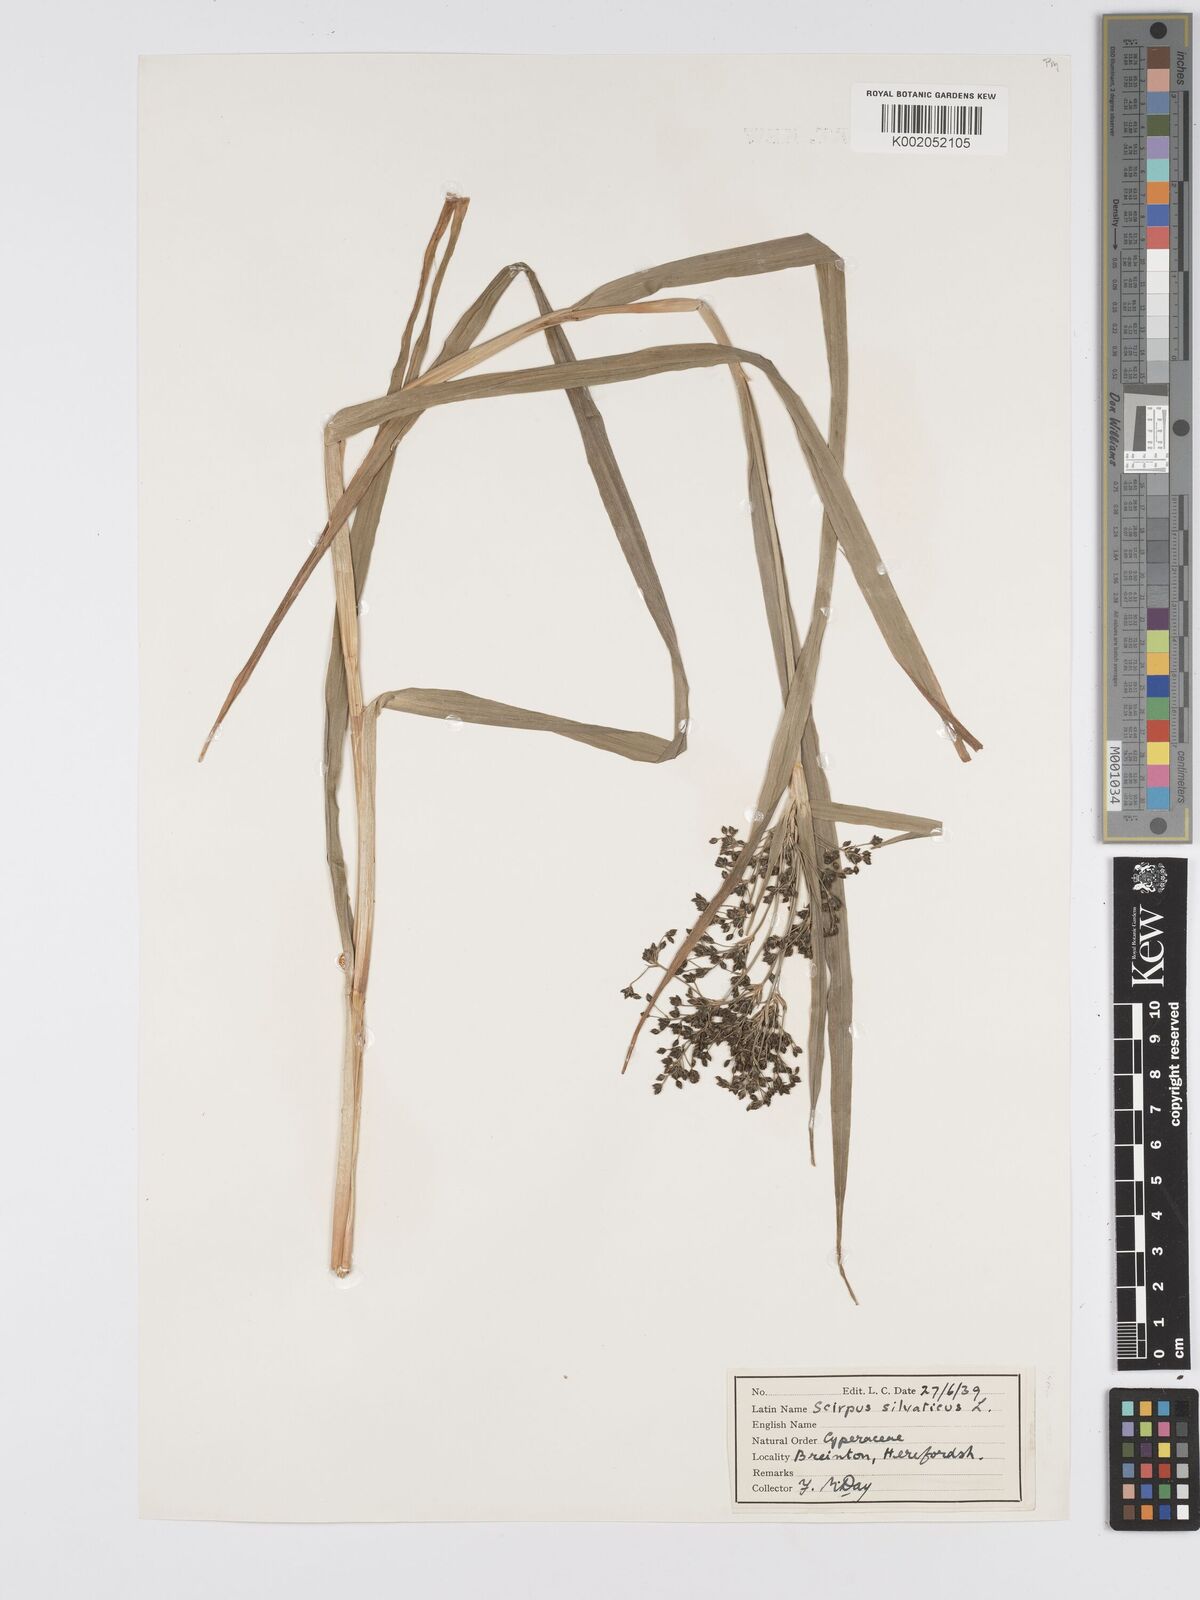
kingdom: Plantae
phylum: Tracheophyta
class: Liliopsida
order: Poales
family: Cyperaceae
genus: Scirpus
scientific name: Scirpus sylvaticus
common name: Wood club-rush
